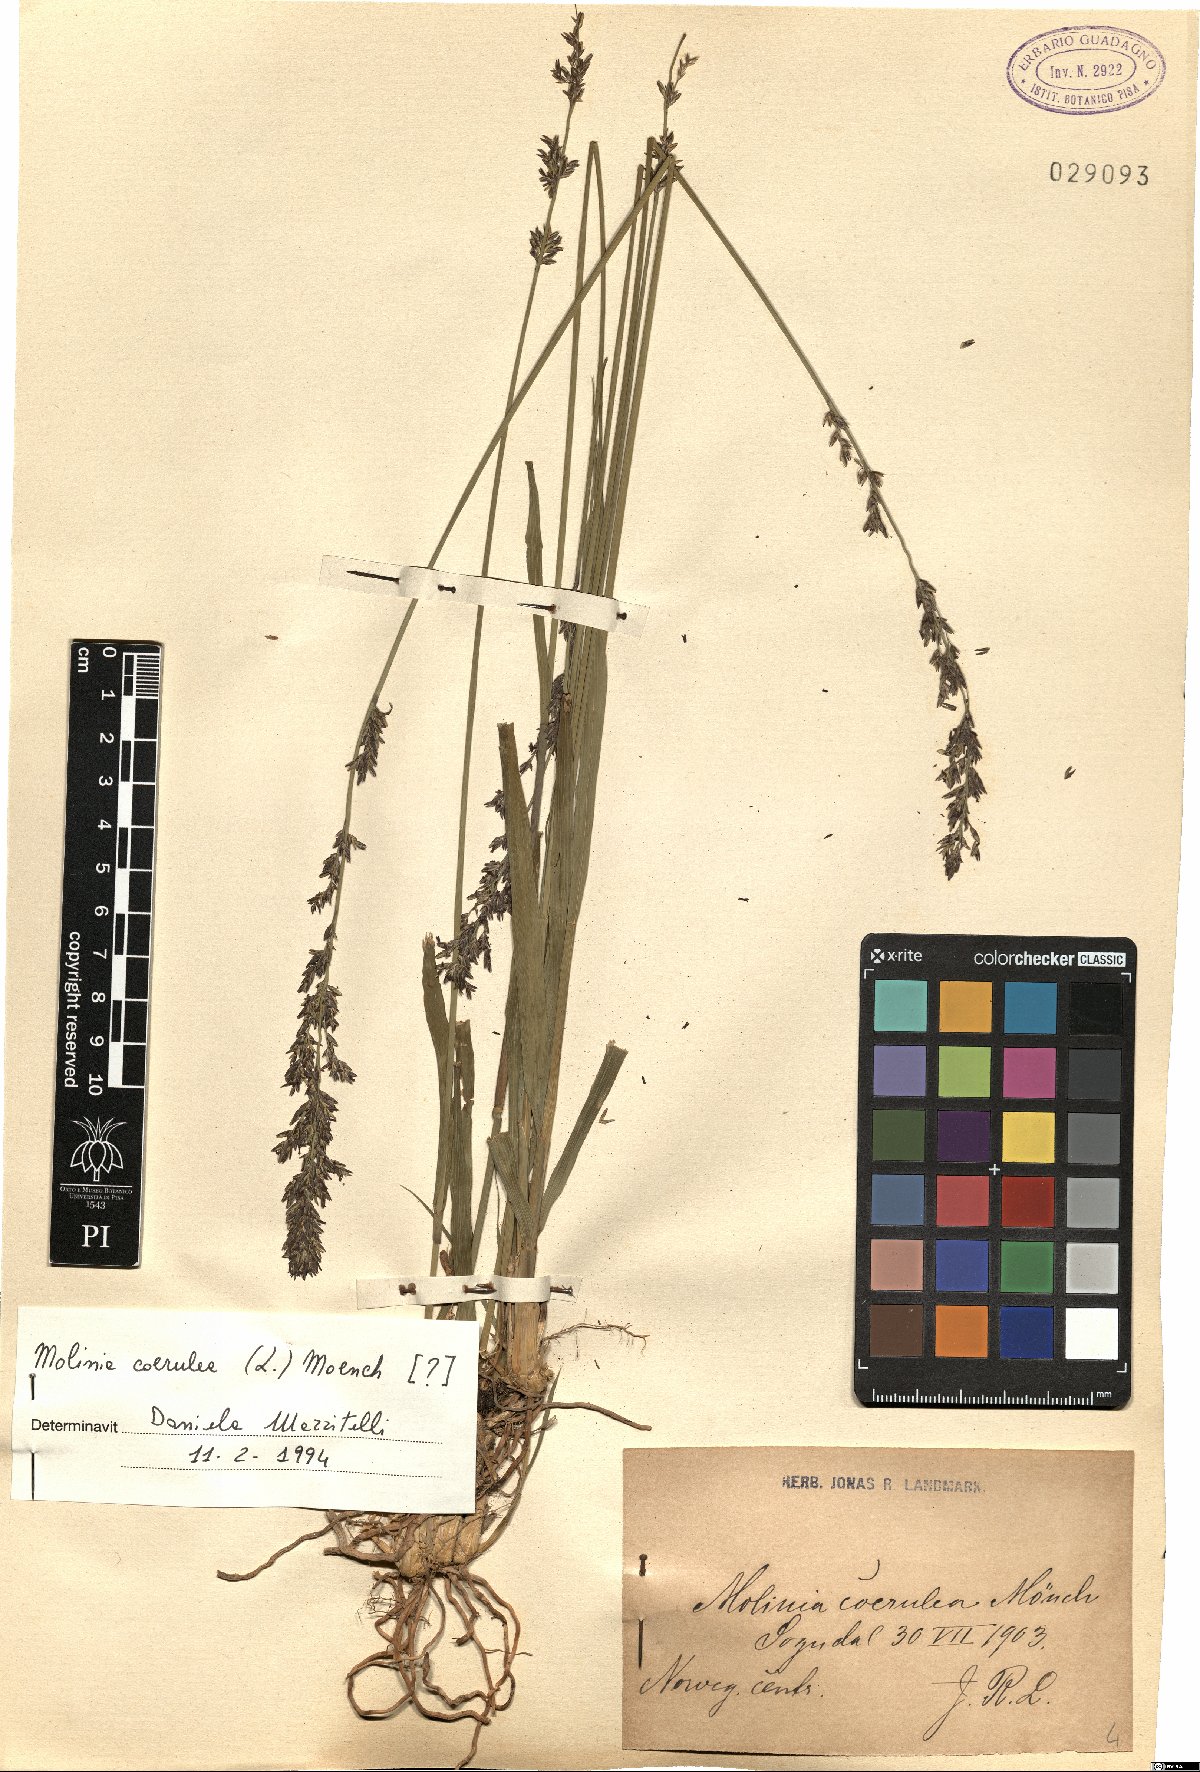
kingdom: Plantae
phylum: Tracheophyta
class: Liliopsida
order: Poales
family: Poaceae
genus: Molinia
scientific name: Molinia caerulea
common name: Purple moor-grass
